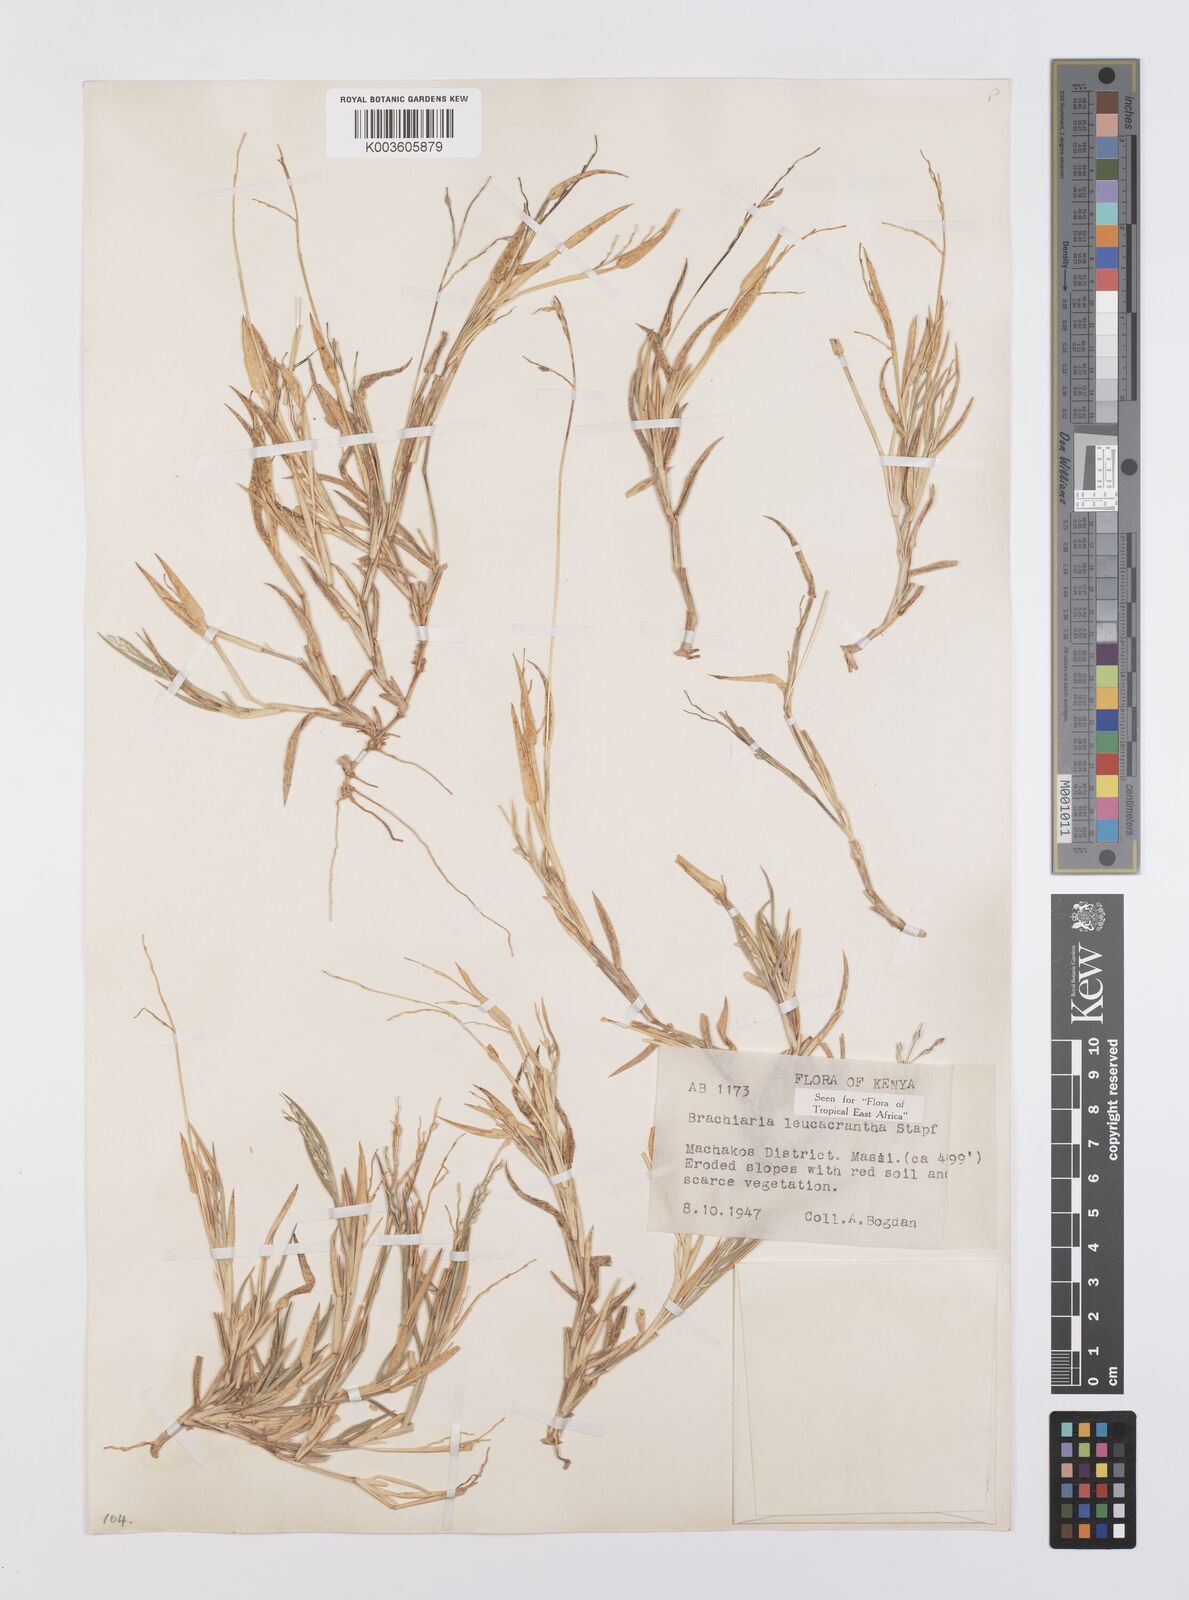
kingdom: Plantae
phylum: Tracheophyta
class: Liliopsida
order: Poales
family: Poaceae
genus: Urochloa
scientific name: Urochloa xantholeuca
